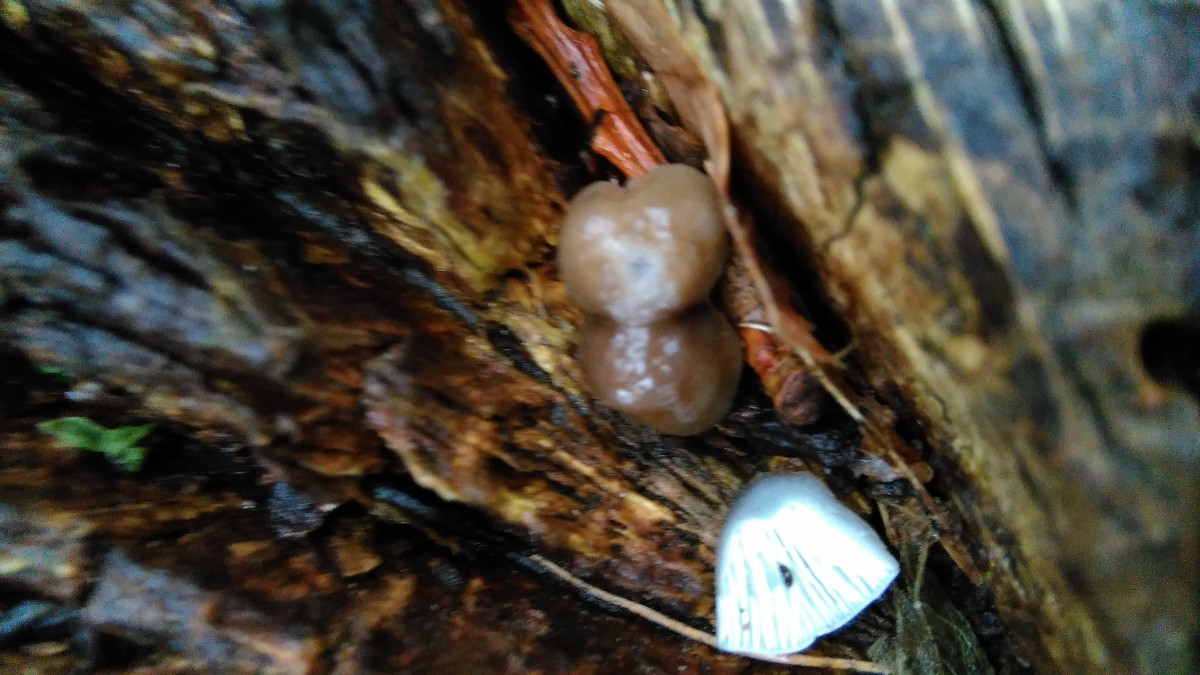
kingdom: Fungi
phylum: Basidiomycota
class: Agaricomycetes
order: Agaricales
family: Mycenaceae
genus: Mycena
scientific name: Mycena galericulata
